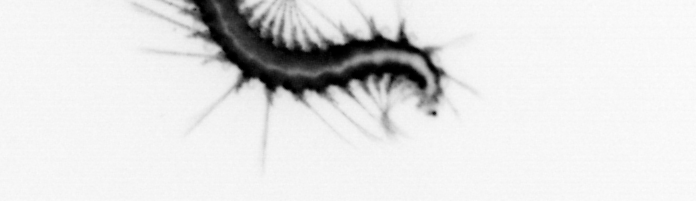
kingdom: Animalia
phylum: Annelida
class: Polychaeta
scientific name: Polychaeta
